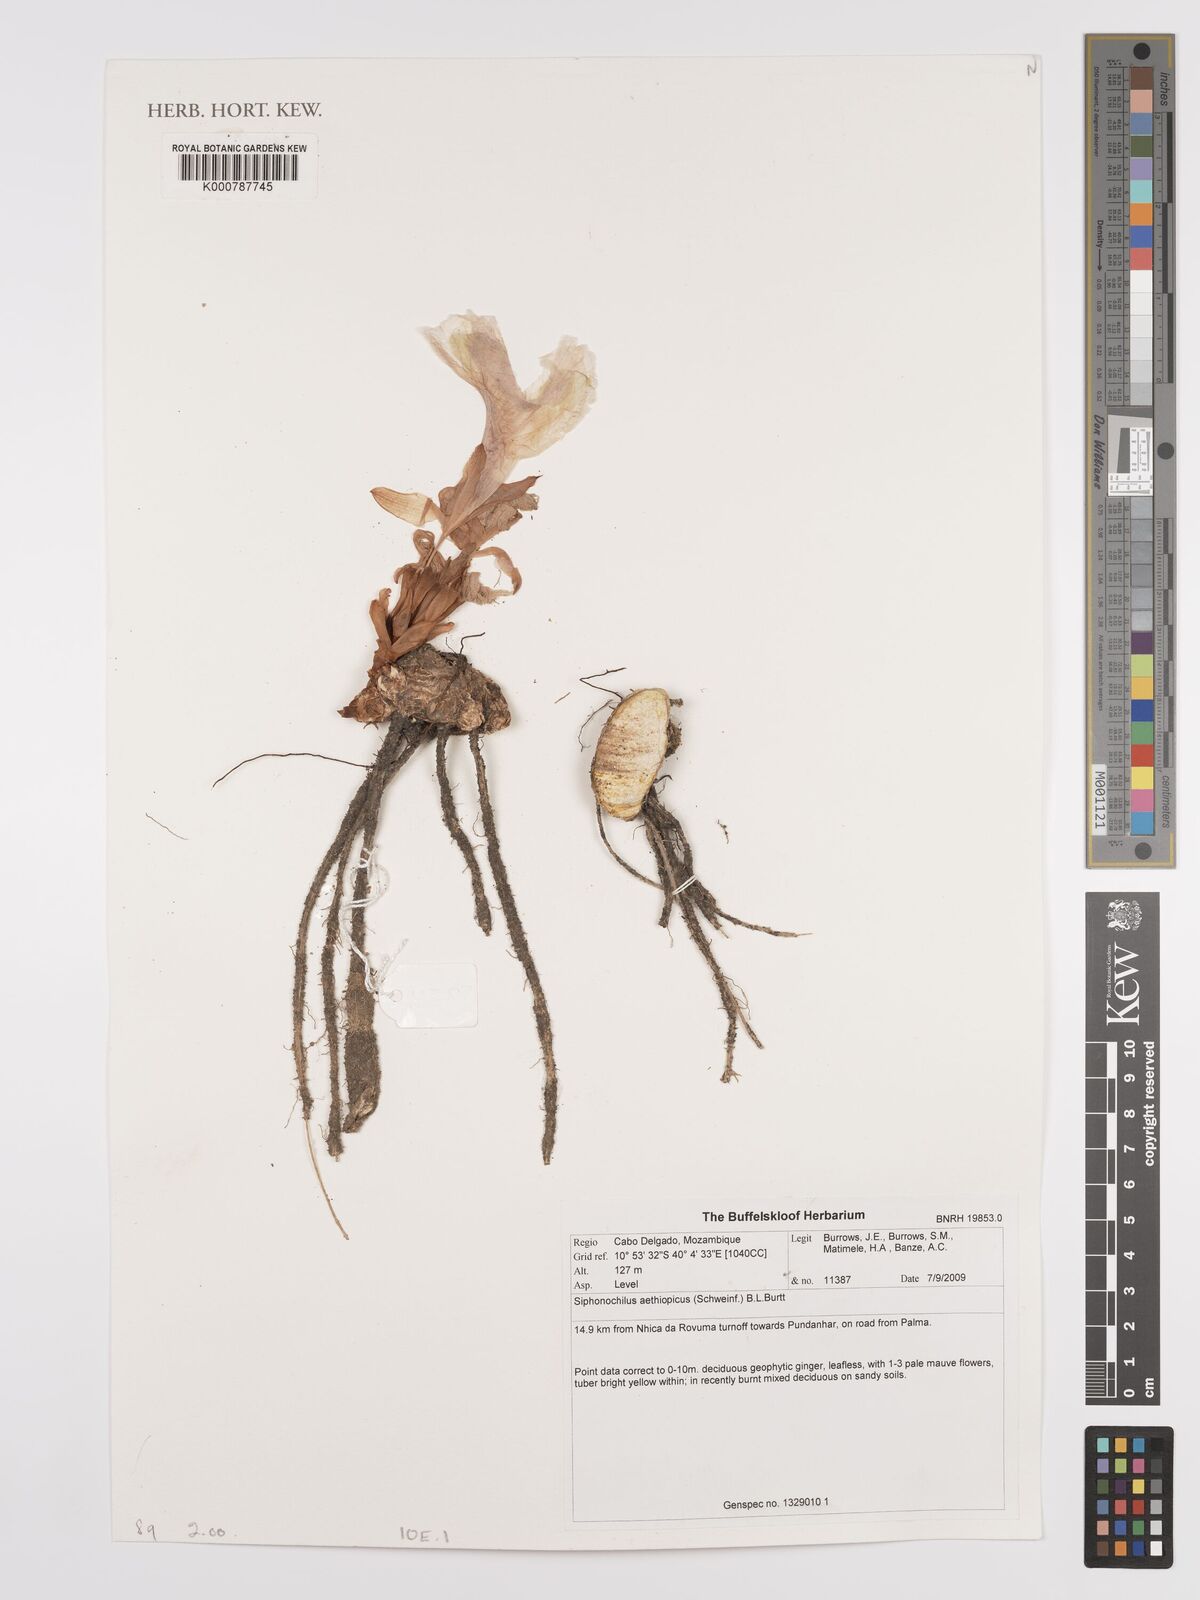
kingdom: Plantae
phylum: Tracheophyta
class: Liliopsida
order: Zingiberales
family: Zingiberaceae
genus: Siphonochilus
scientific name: Siphonochilus aethiopicus
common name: African-ginger
